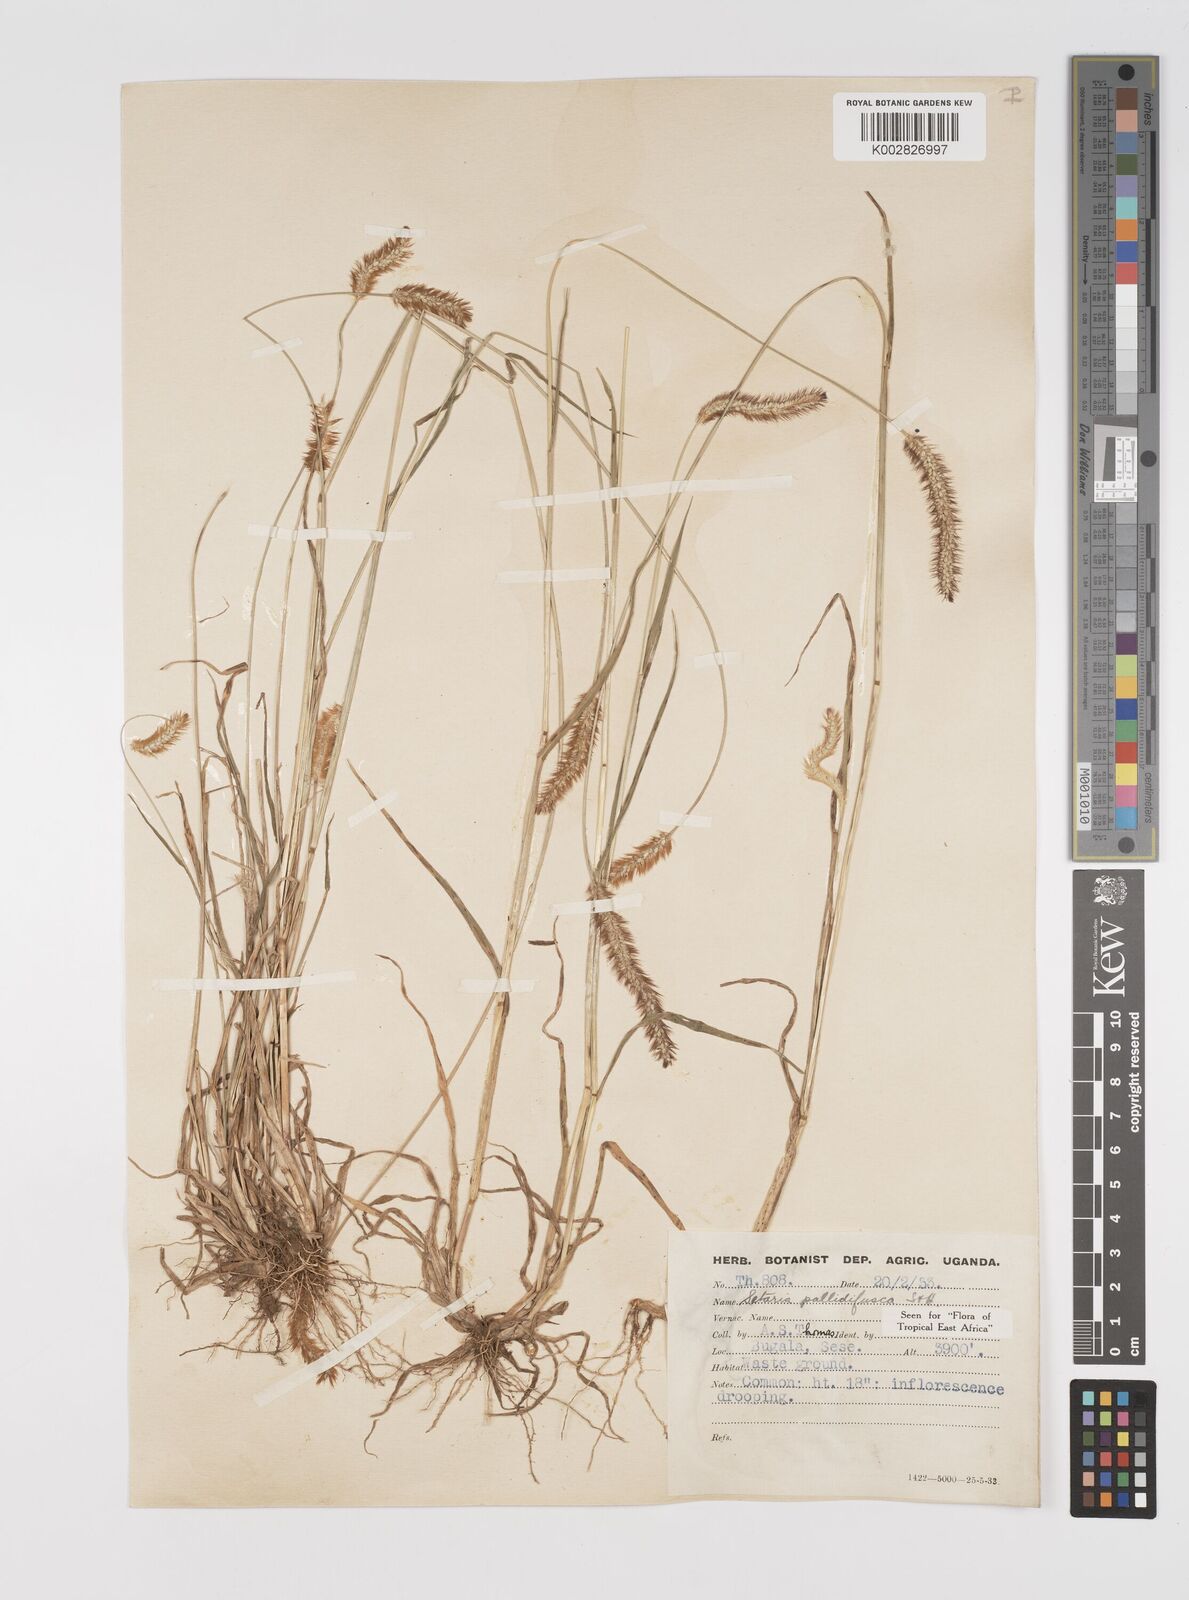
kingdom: Plantae
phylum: Tracheophyta
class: Liliopsida
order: Poales
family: Poaceae
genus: Setaria
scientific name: Setaria pumila
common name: Yellow bristle-grass
